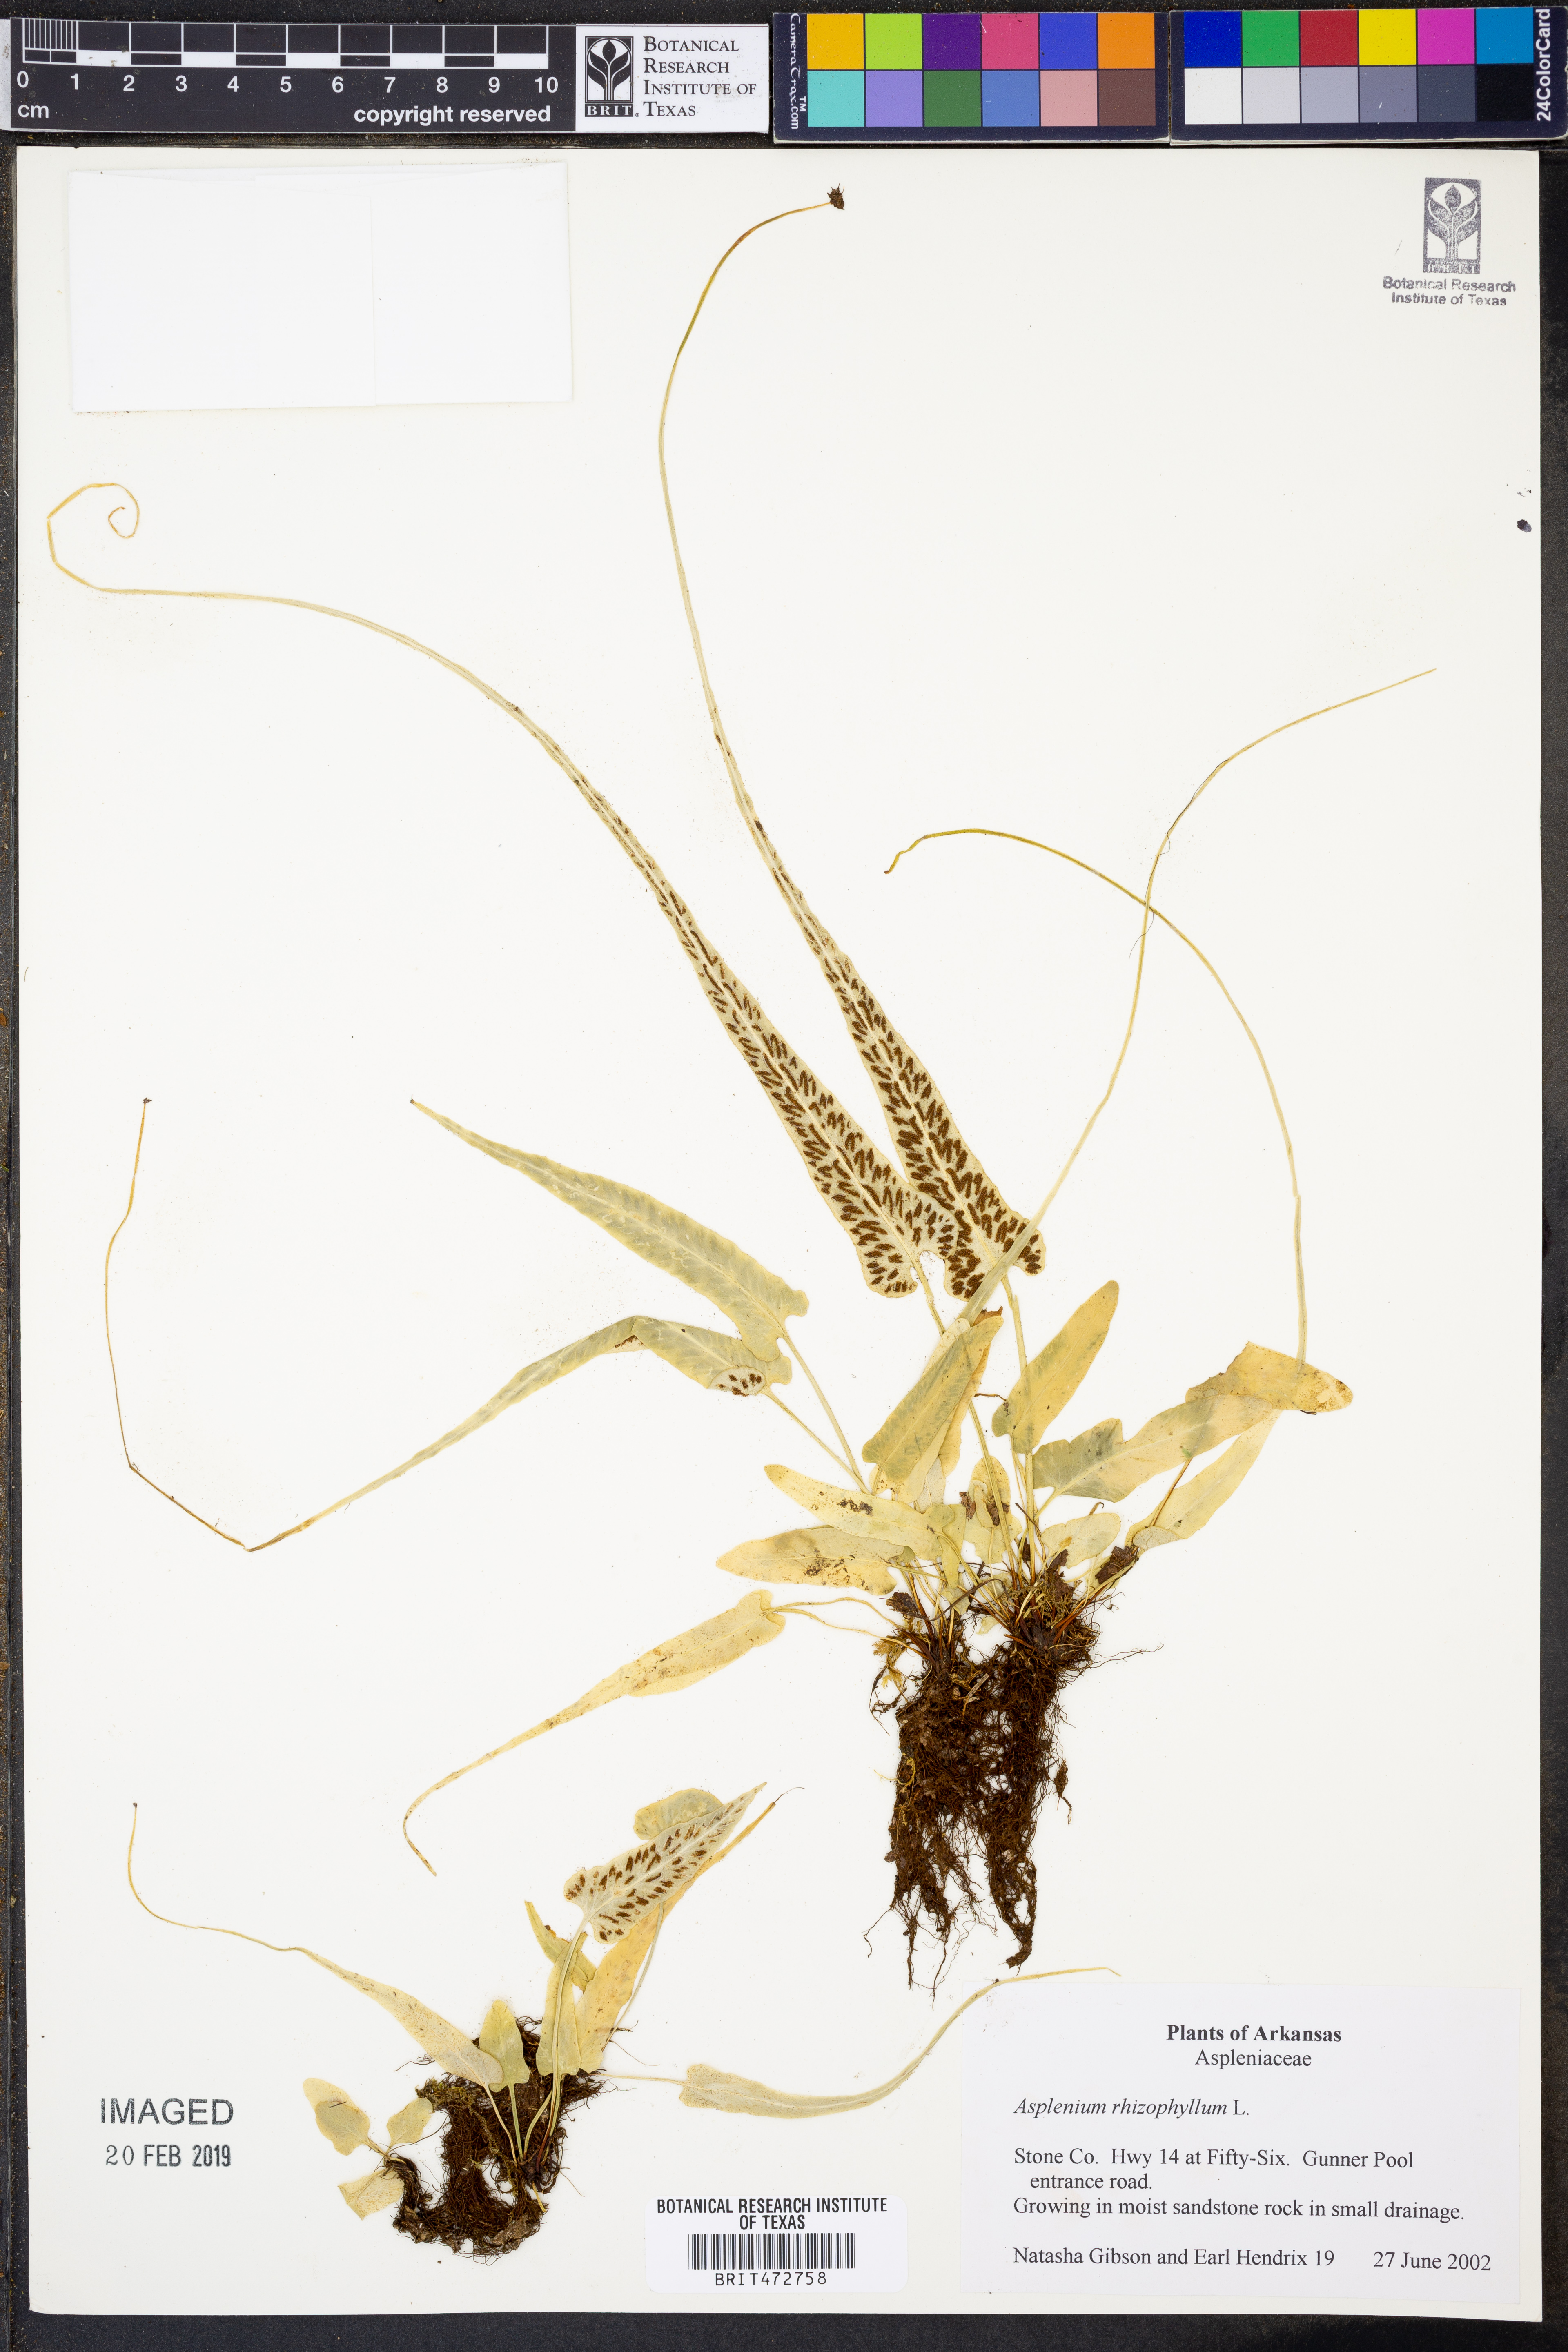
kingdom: Plantae
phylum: Tracheophyta
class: Polypodiopsida
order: Polypodiales
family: Aspleniaceae
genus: Asplenium
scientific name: Asplenium rhizophyllum
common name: Walking fern
